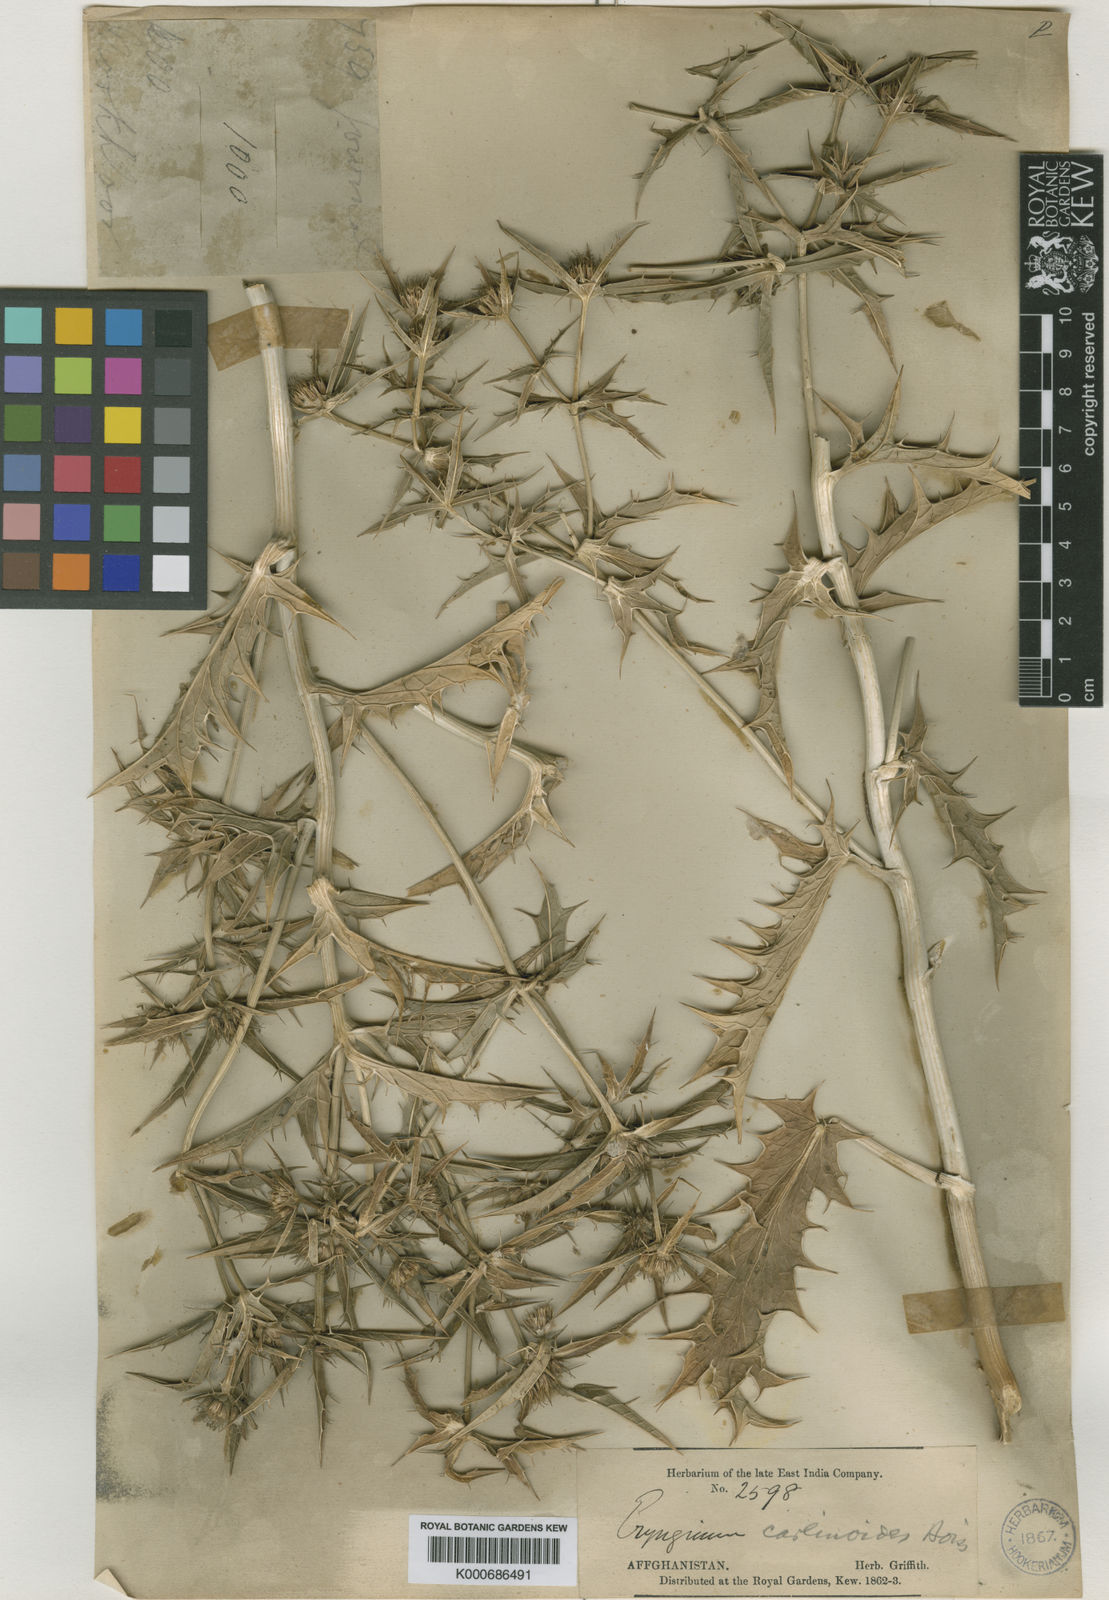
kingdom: Plantae
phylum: Tracheophyta
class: Magnoliopsida
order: Apiales
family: Apiaceae
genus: Eryngium
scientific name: Eryngium carlinoides
